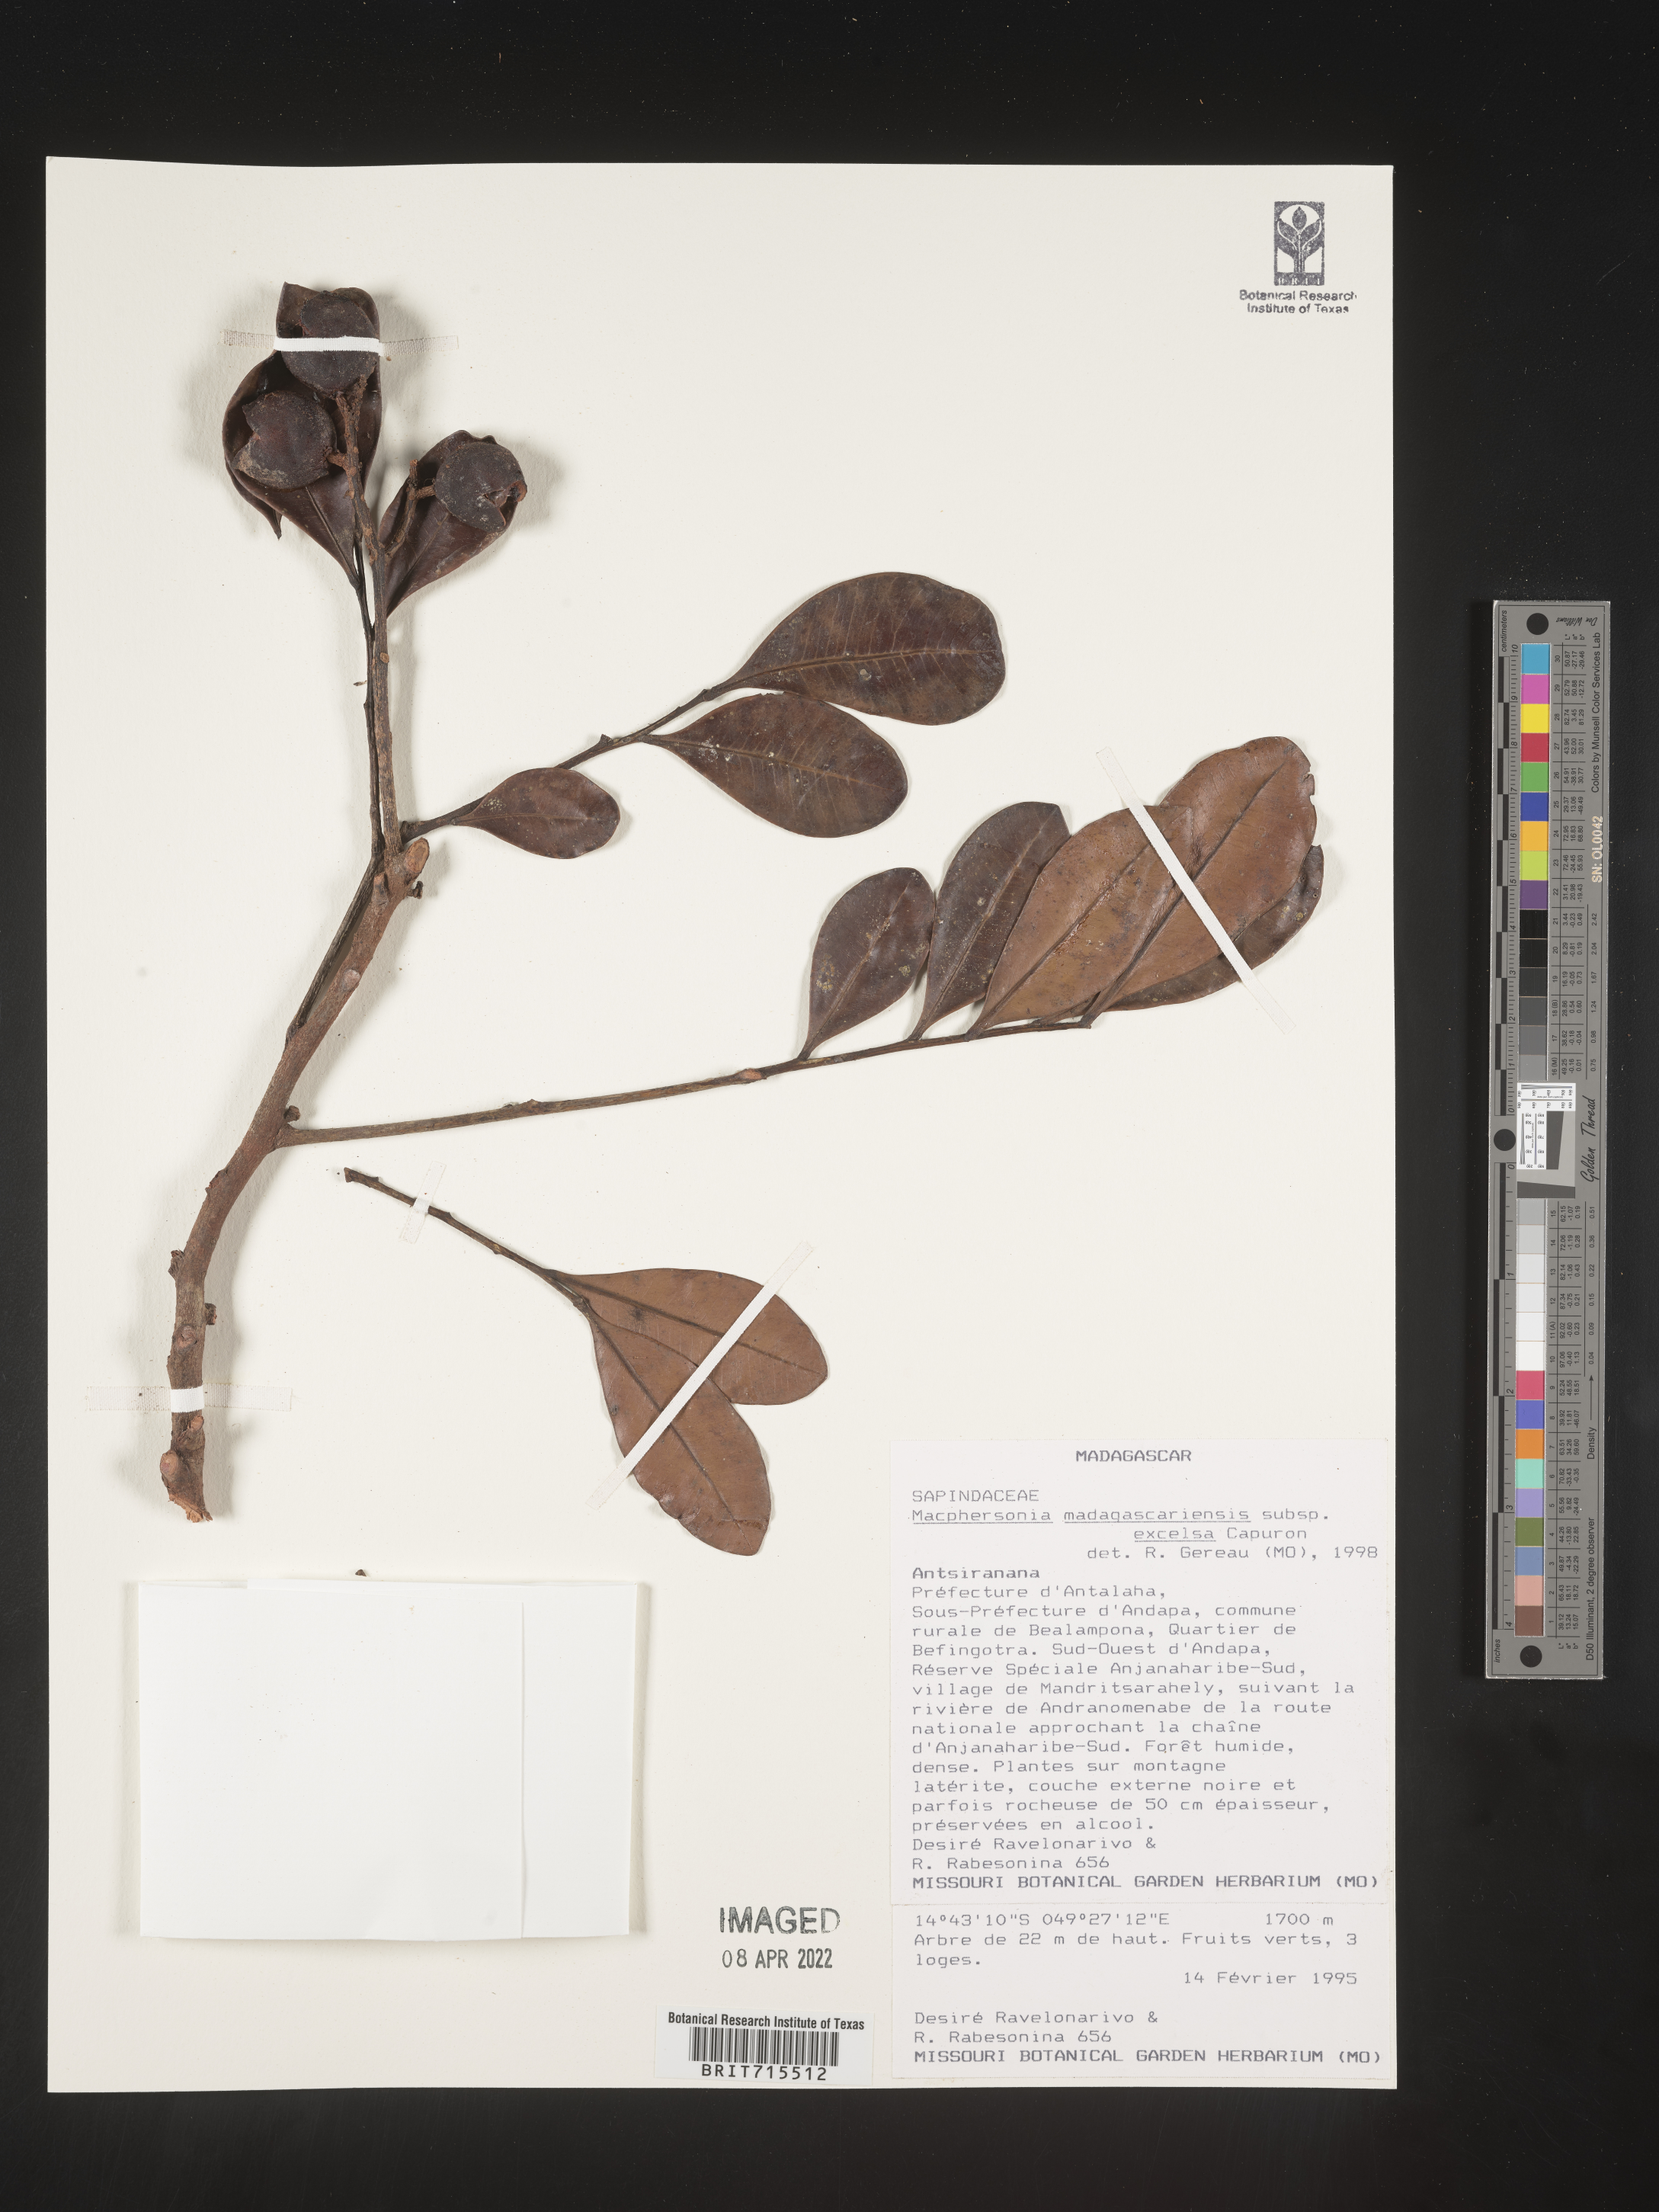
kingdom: Plantae
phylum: Tracheophyta
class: Magnoliopsida
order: Sapindales
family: Sapindaceae
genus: Macphersonia
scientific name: Macphersonia
